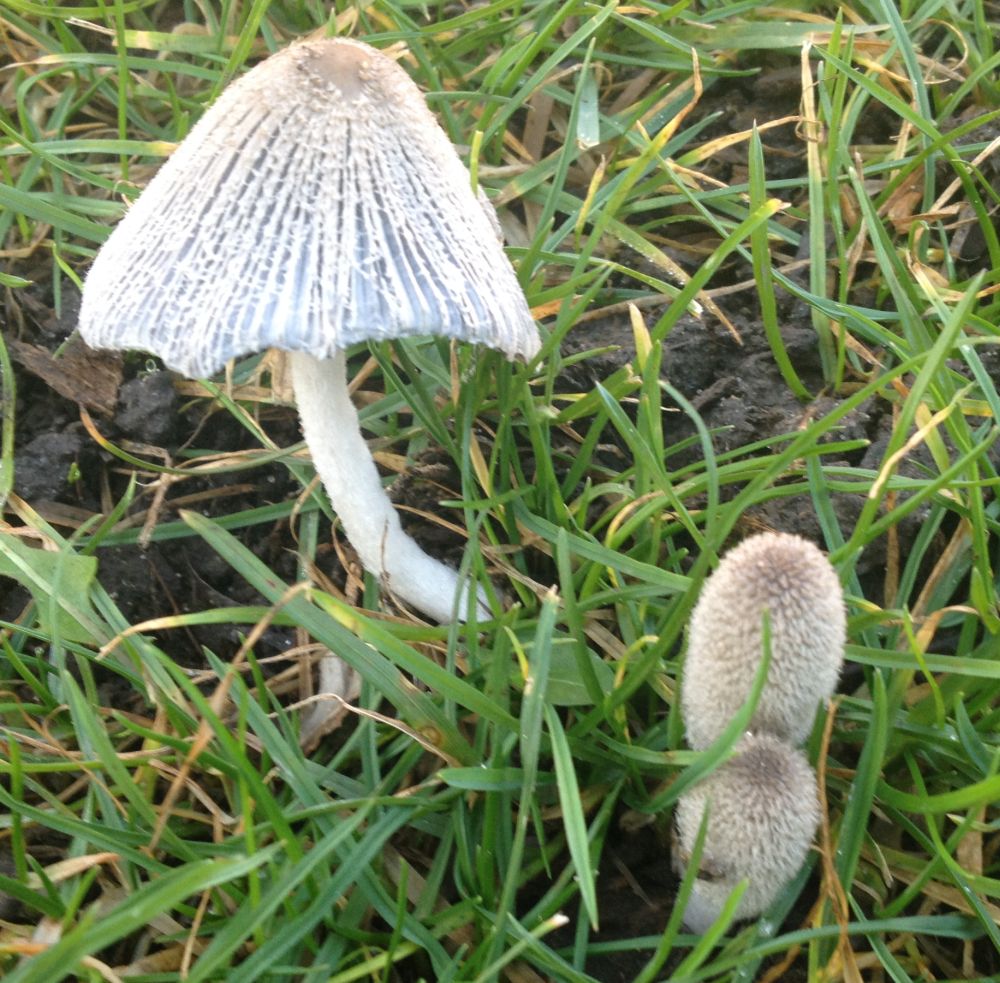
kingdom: Fungi
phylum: Basidiomycota
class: Agaricomycetes
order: Agaricales
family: Psathyrellaceae
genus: Coprinopsis
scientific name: Coprinopsis lagopus
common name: dunstokket blækhat
